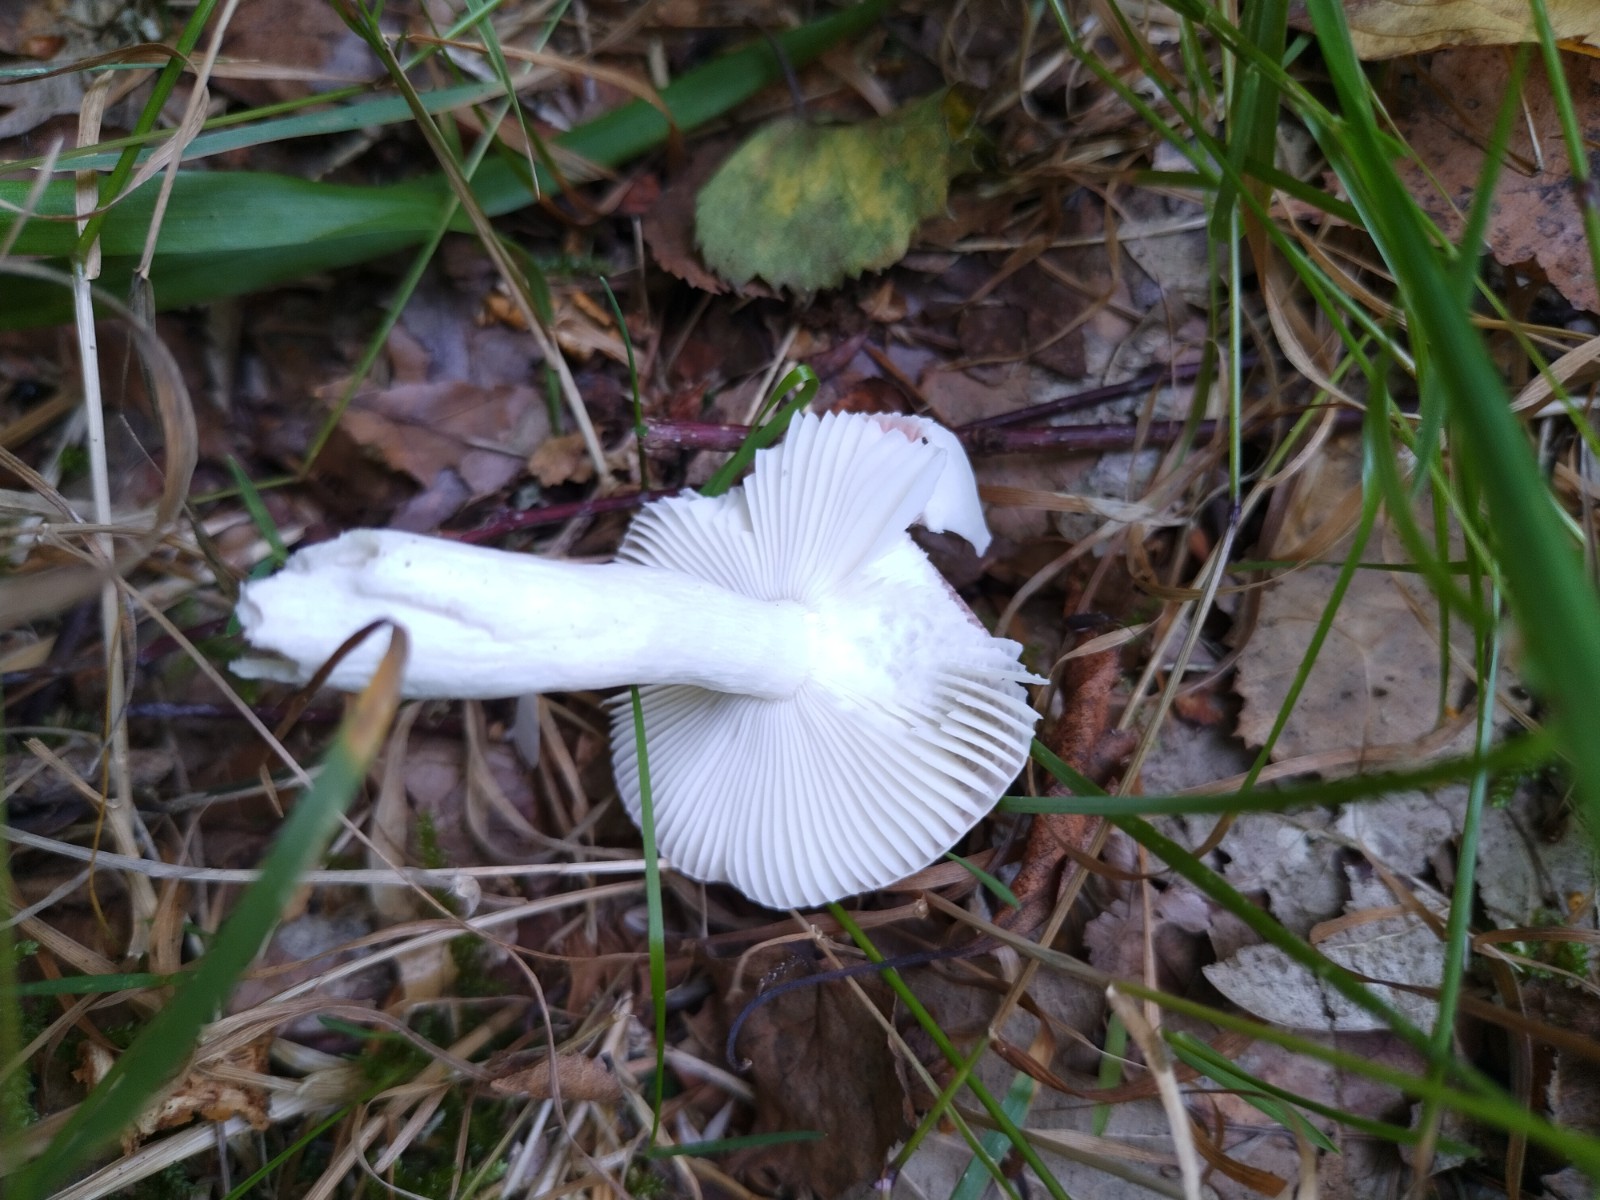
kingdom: Fungi
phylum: Basidiomycota
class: Agaricomycetes
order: Russulales
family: Russulaceae
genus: Russula
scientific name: Russula betularum
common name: bleg gift-skørhat
